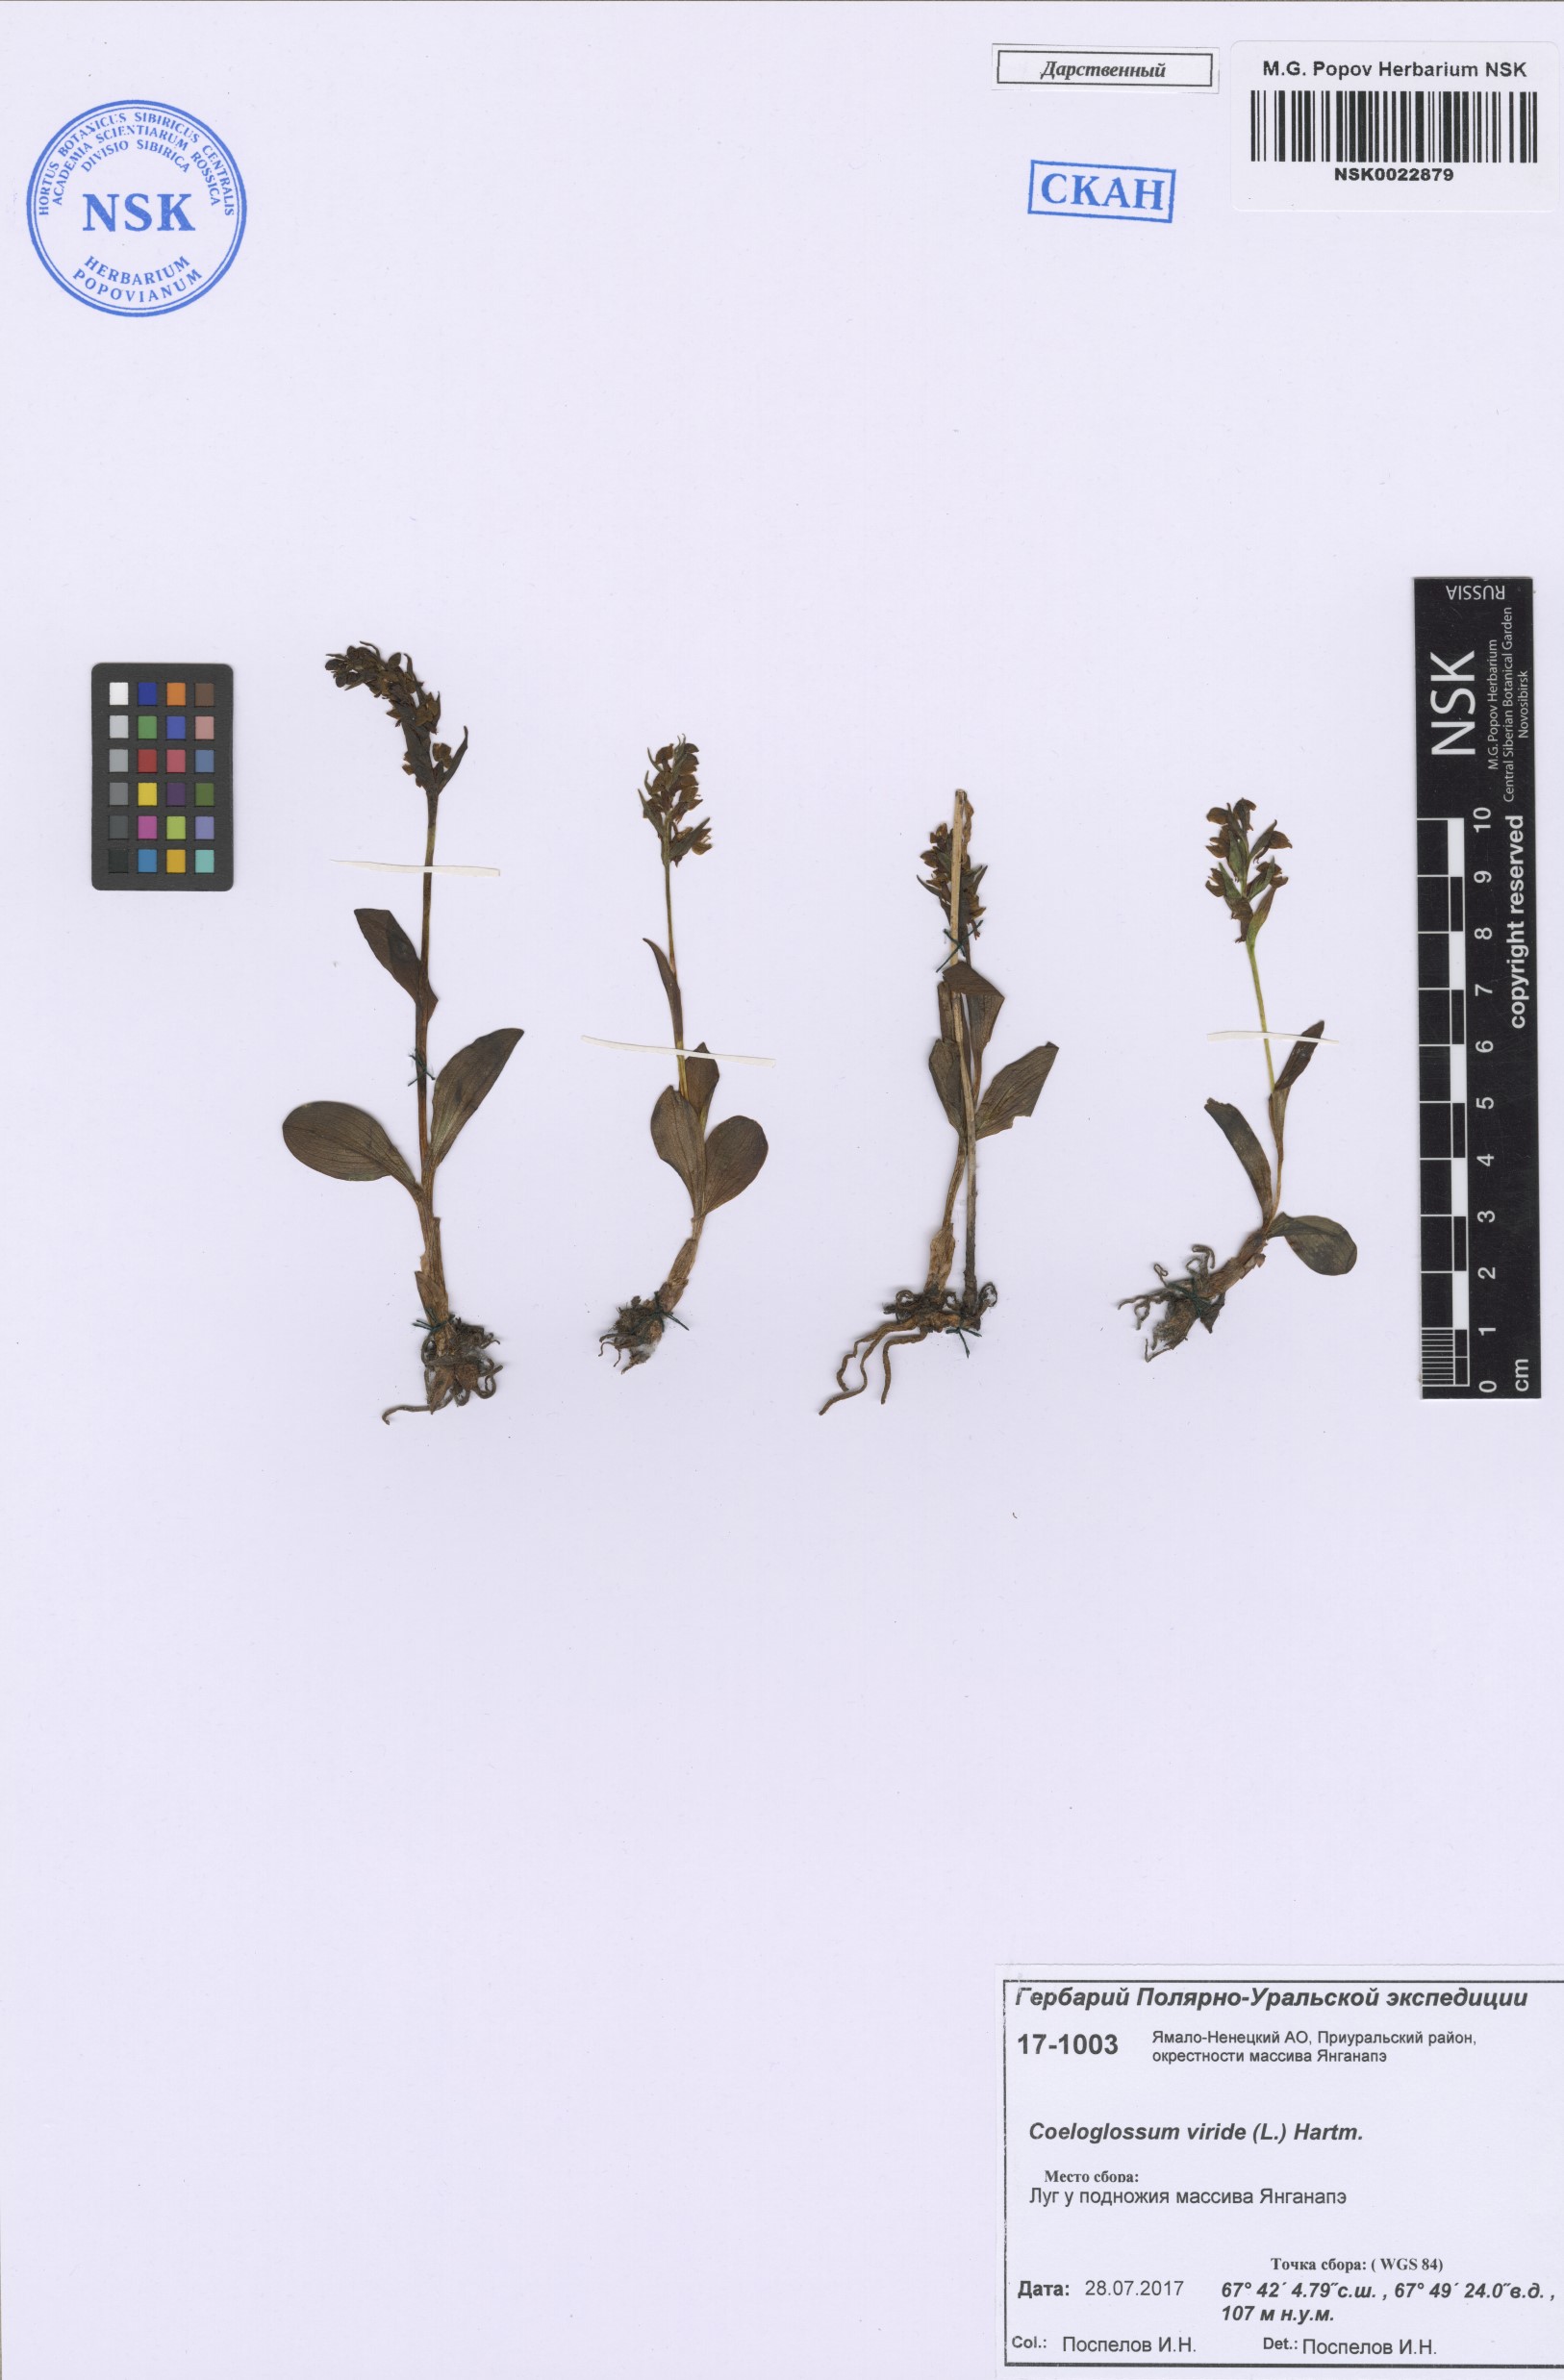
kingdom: Plantae
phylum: Tracheophyta
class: Liliopsida
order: Asparagales
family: Orchidaceae
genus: Dactylorhiza
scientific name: Dactylorhiza viridis
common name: Longbract frog orchid
